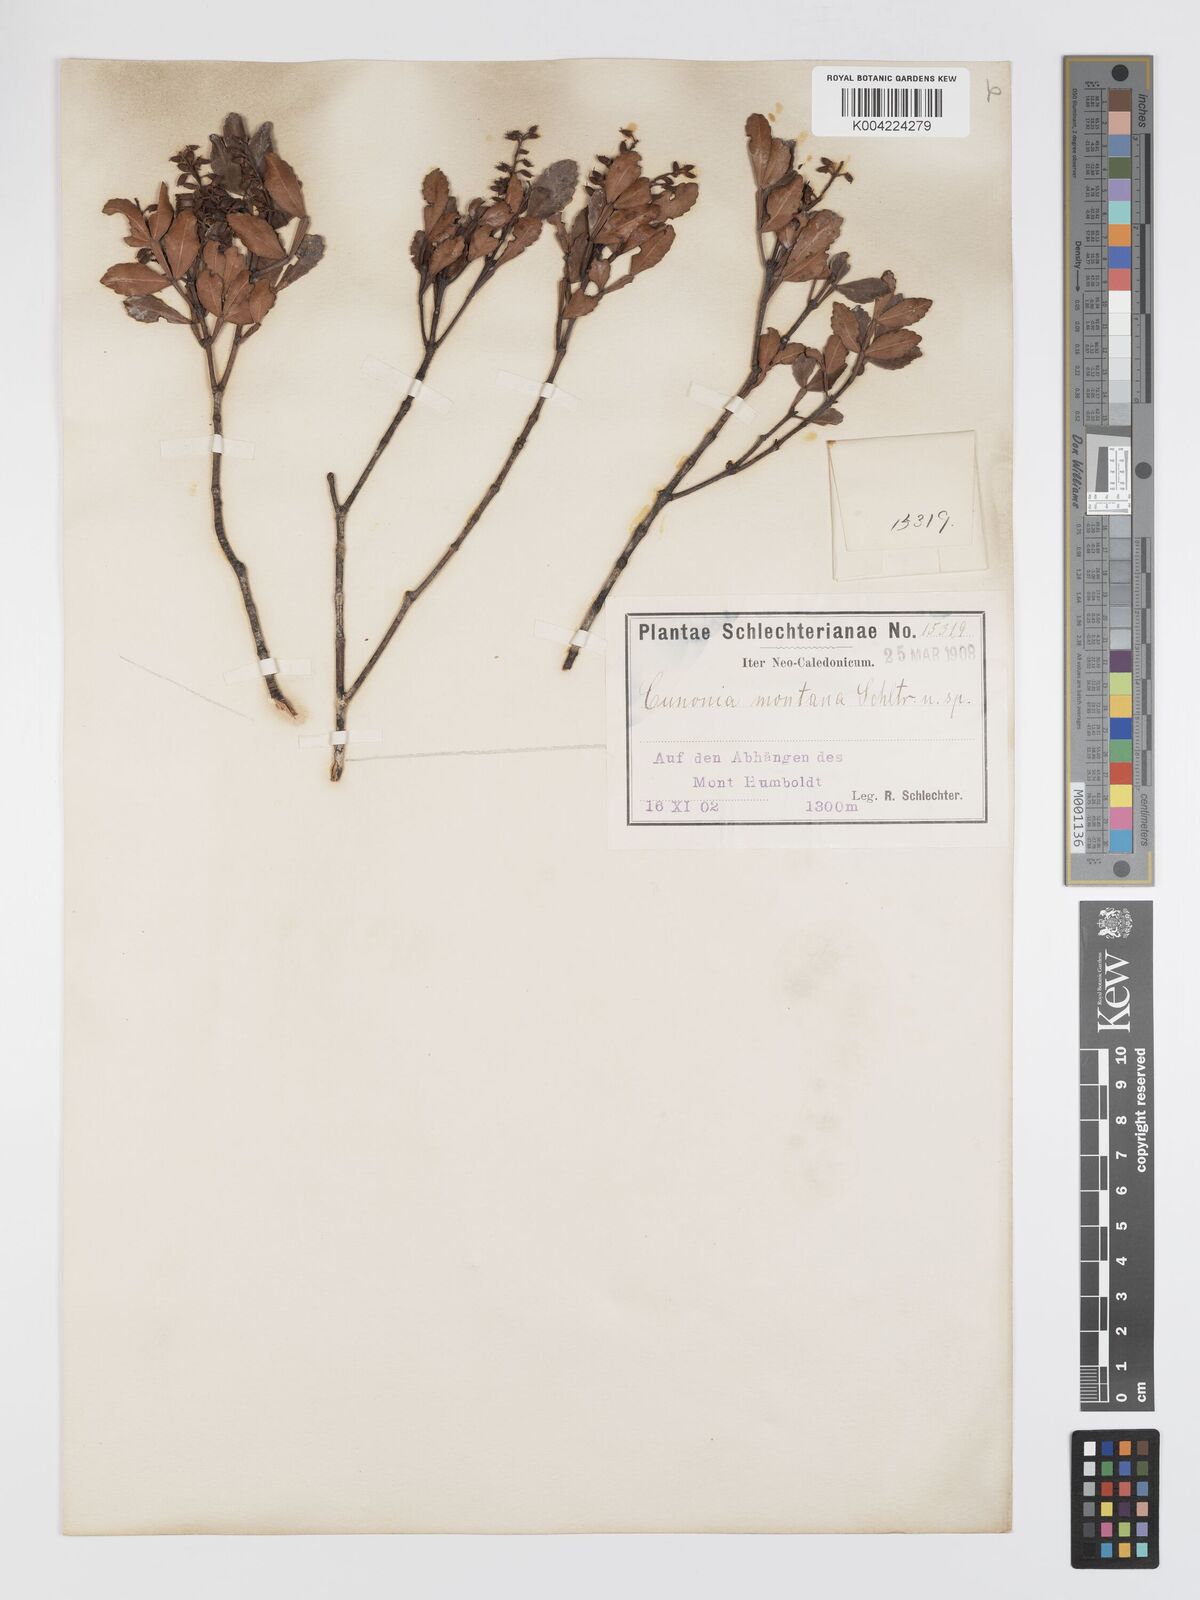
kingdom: Plantae
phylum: Tracheophyta
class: Magnoliopsida
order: Oxalidales
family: Cunoniaceae
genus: Cunonia
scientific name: Cunonia montana
